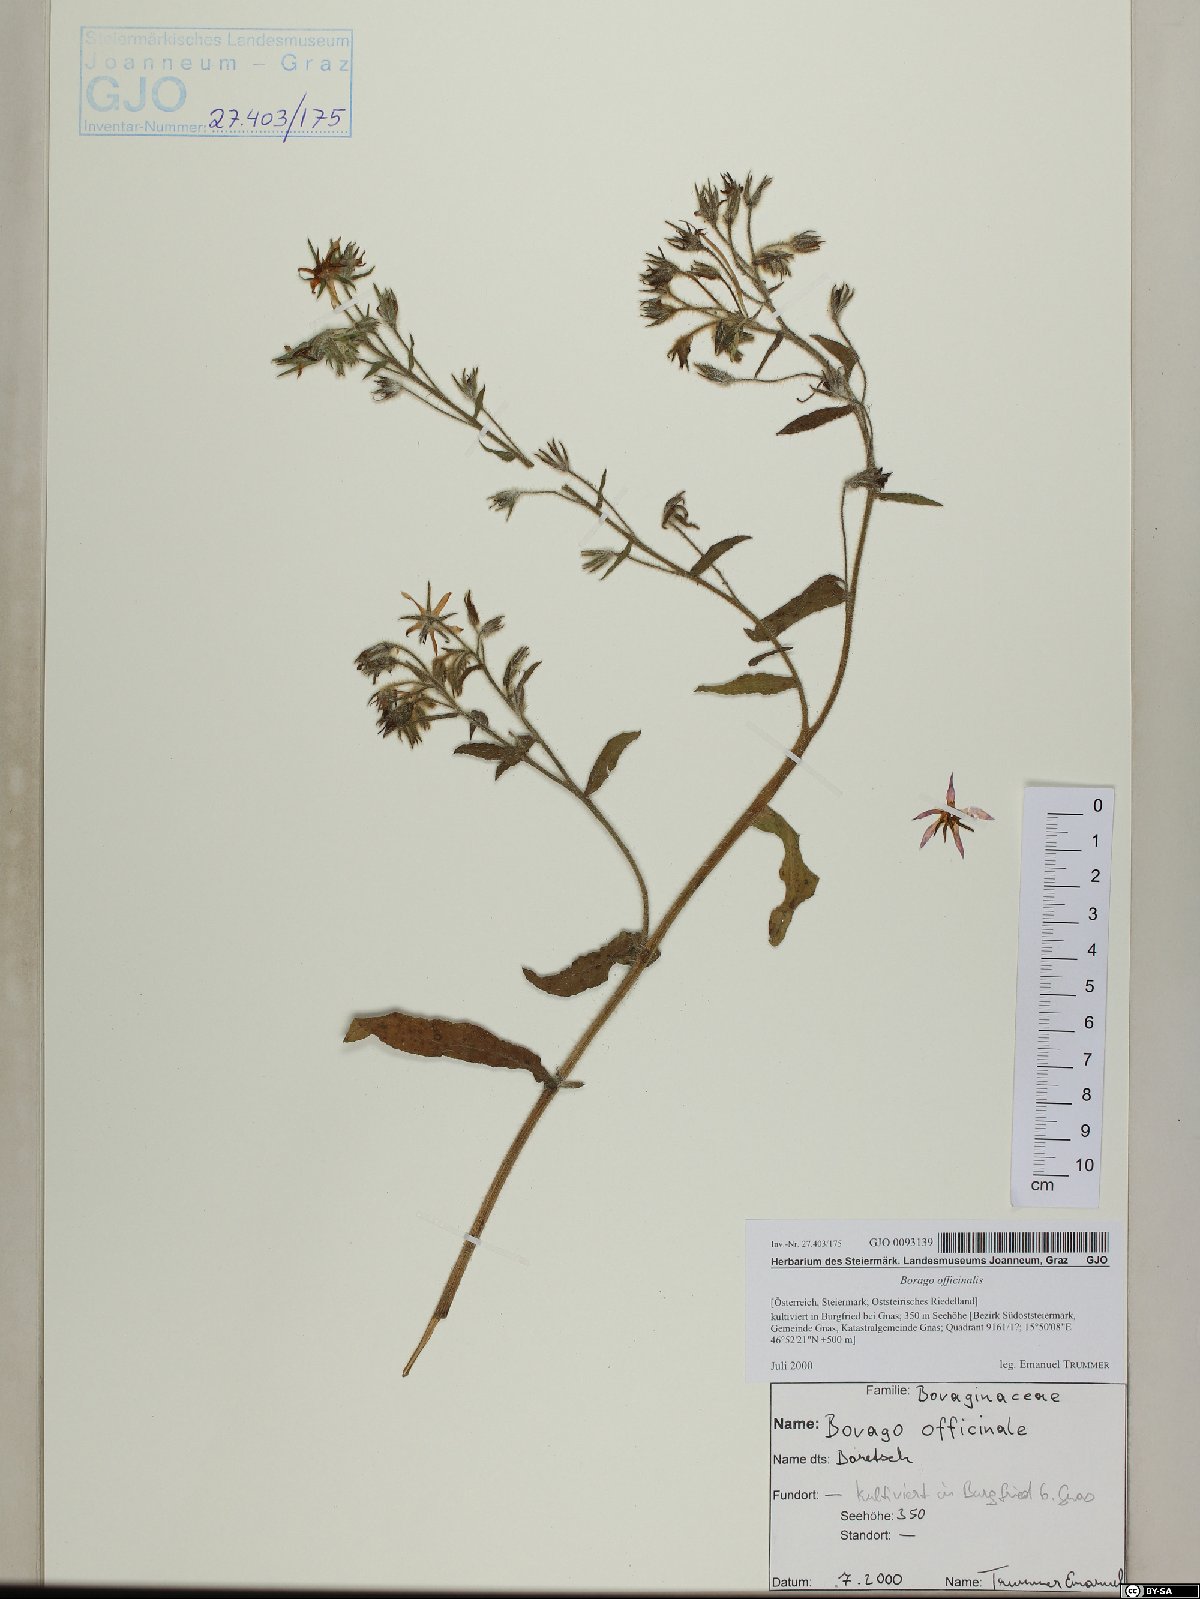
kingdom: Plantae
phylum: Tracheophyta
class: Magnoliopsida
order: Boraginales
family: Boraginaceae
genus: Borago
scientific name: Borago officinalis
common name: Borage
